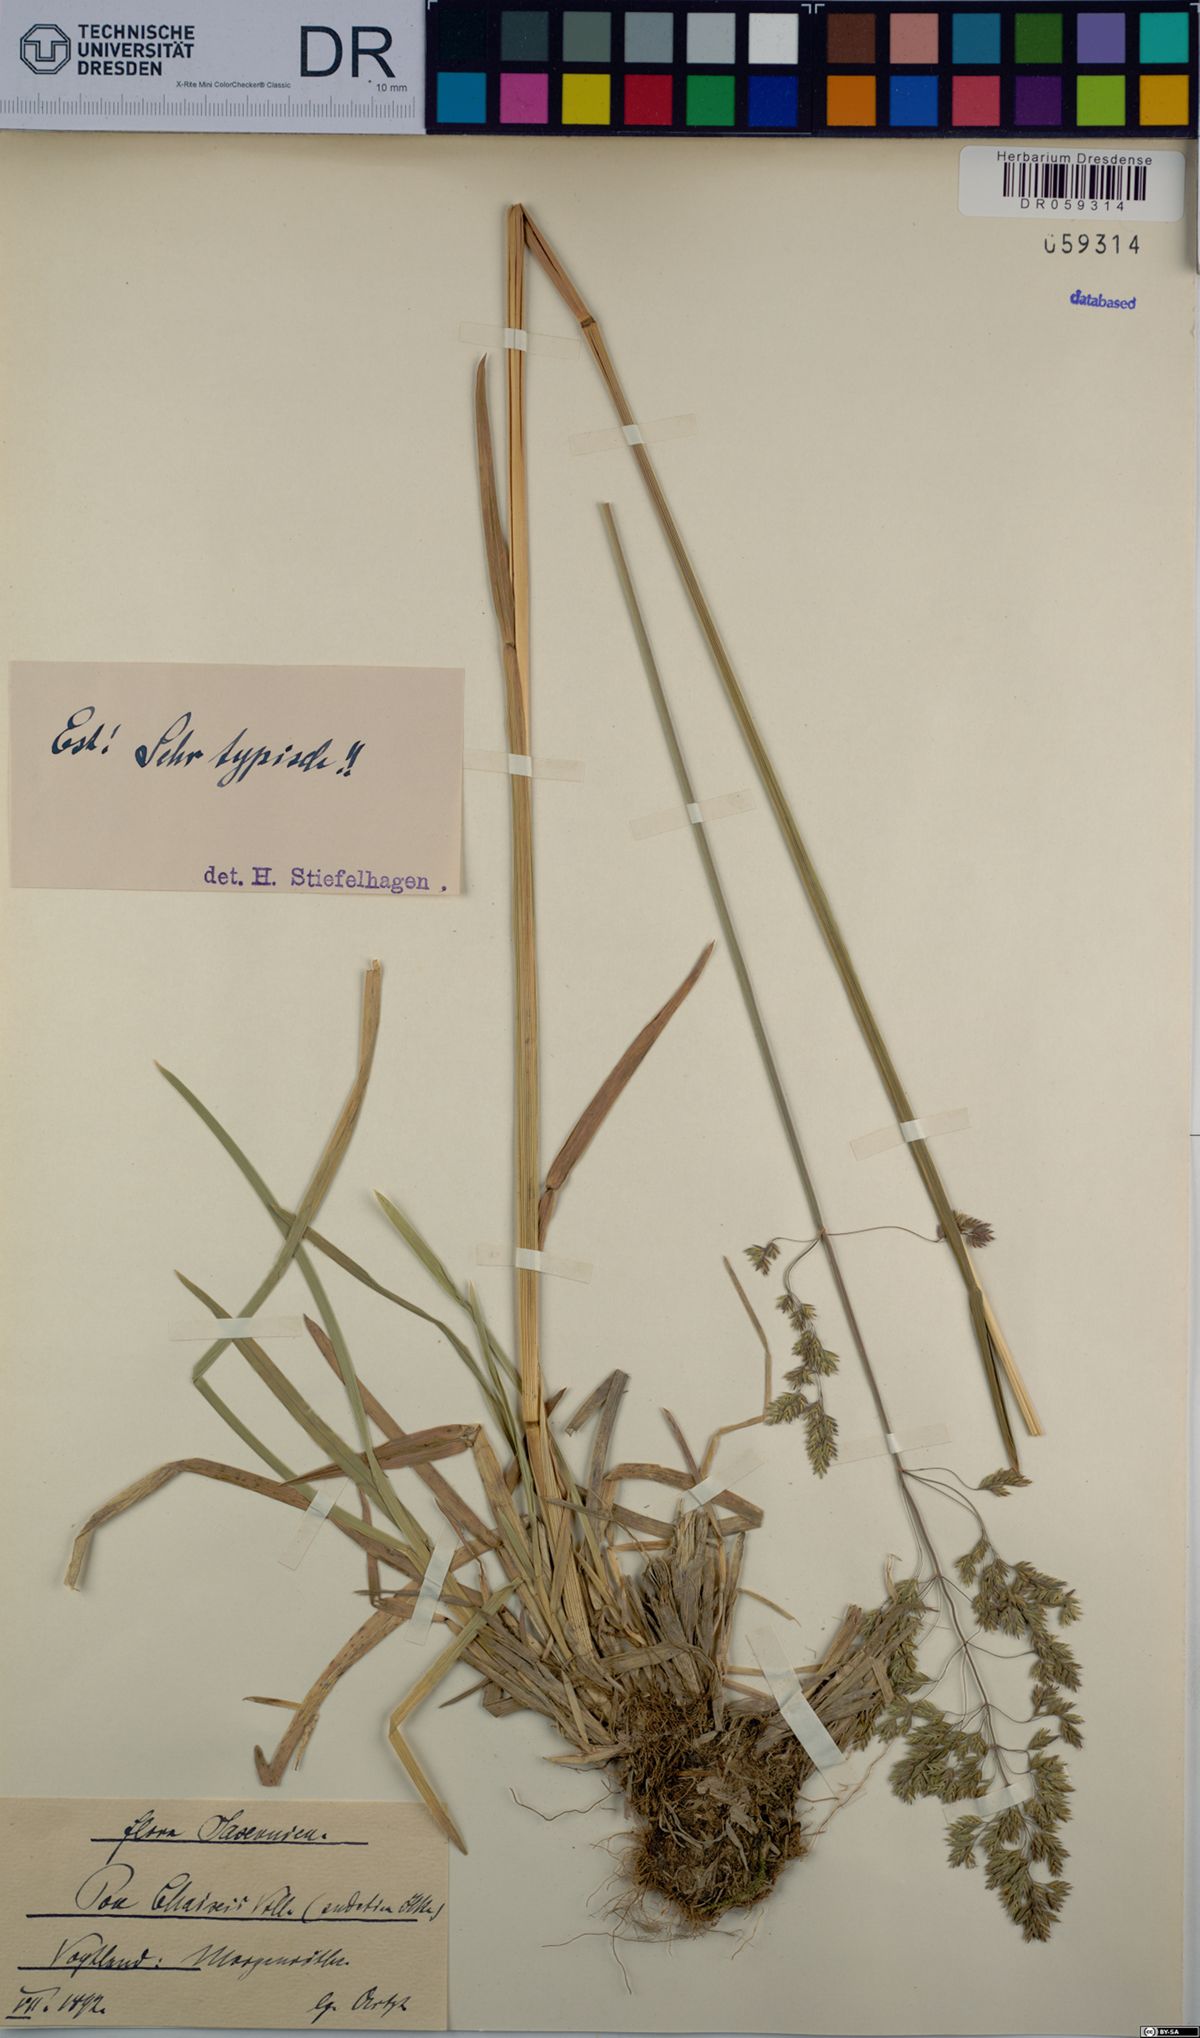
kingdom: Plantae
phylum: Tracheophyta
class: Liliopsida
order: Poales
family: Poaceae
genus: Poa
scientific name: Poa chaixii
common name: Broad-leaved meadow-grass
